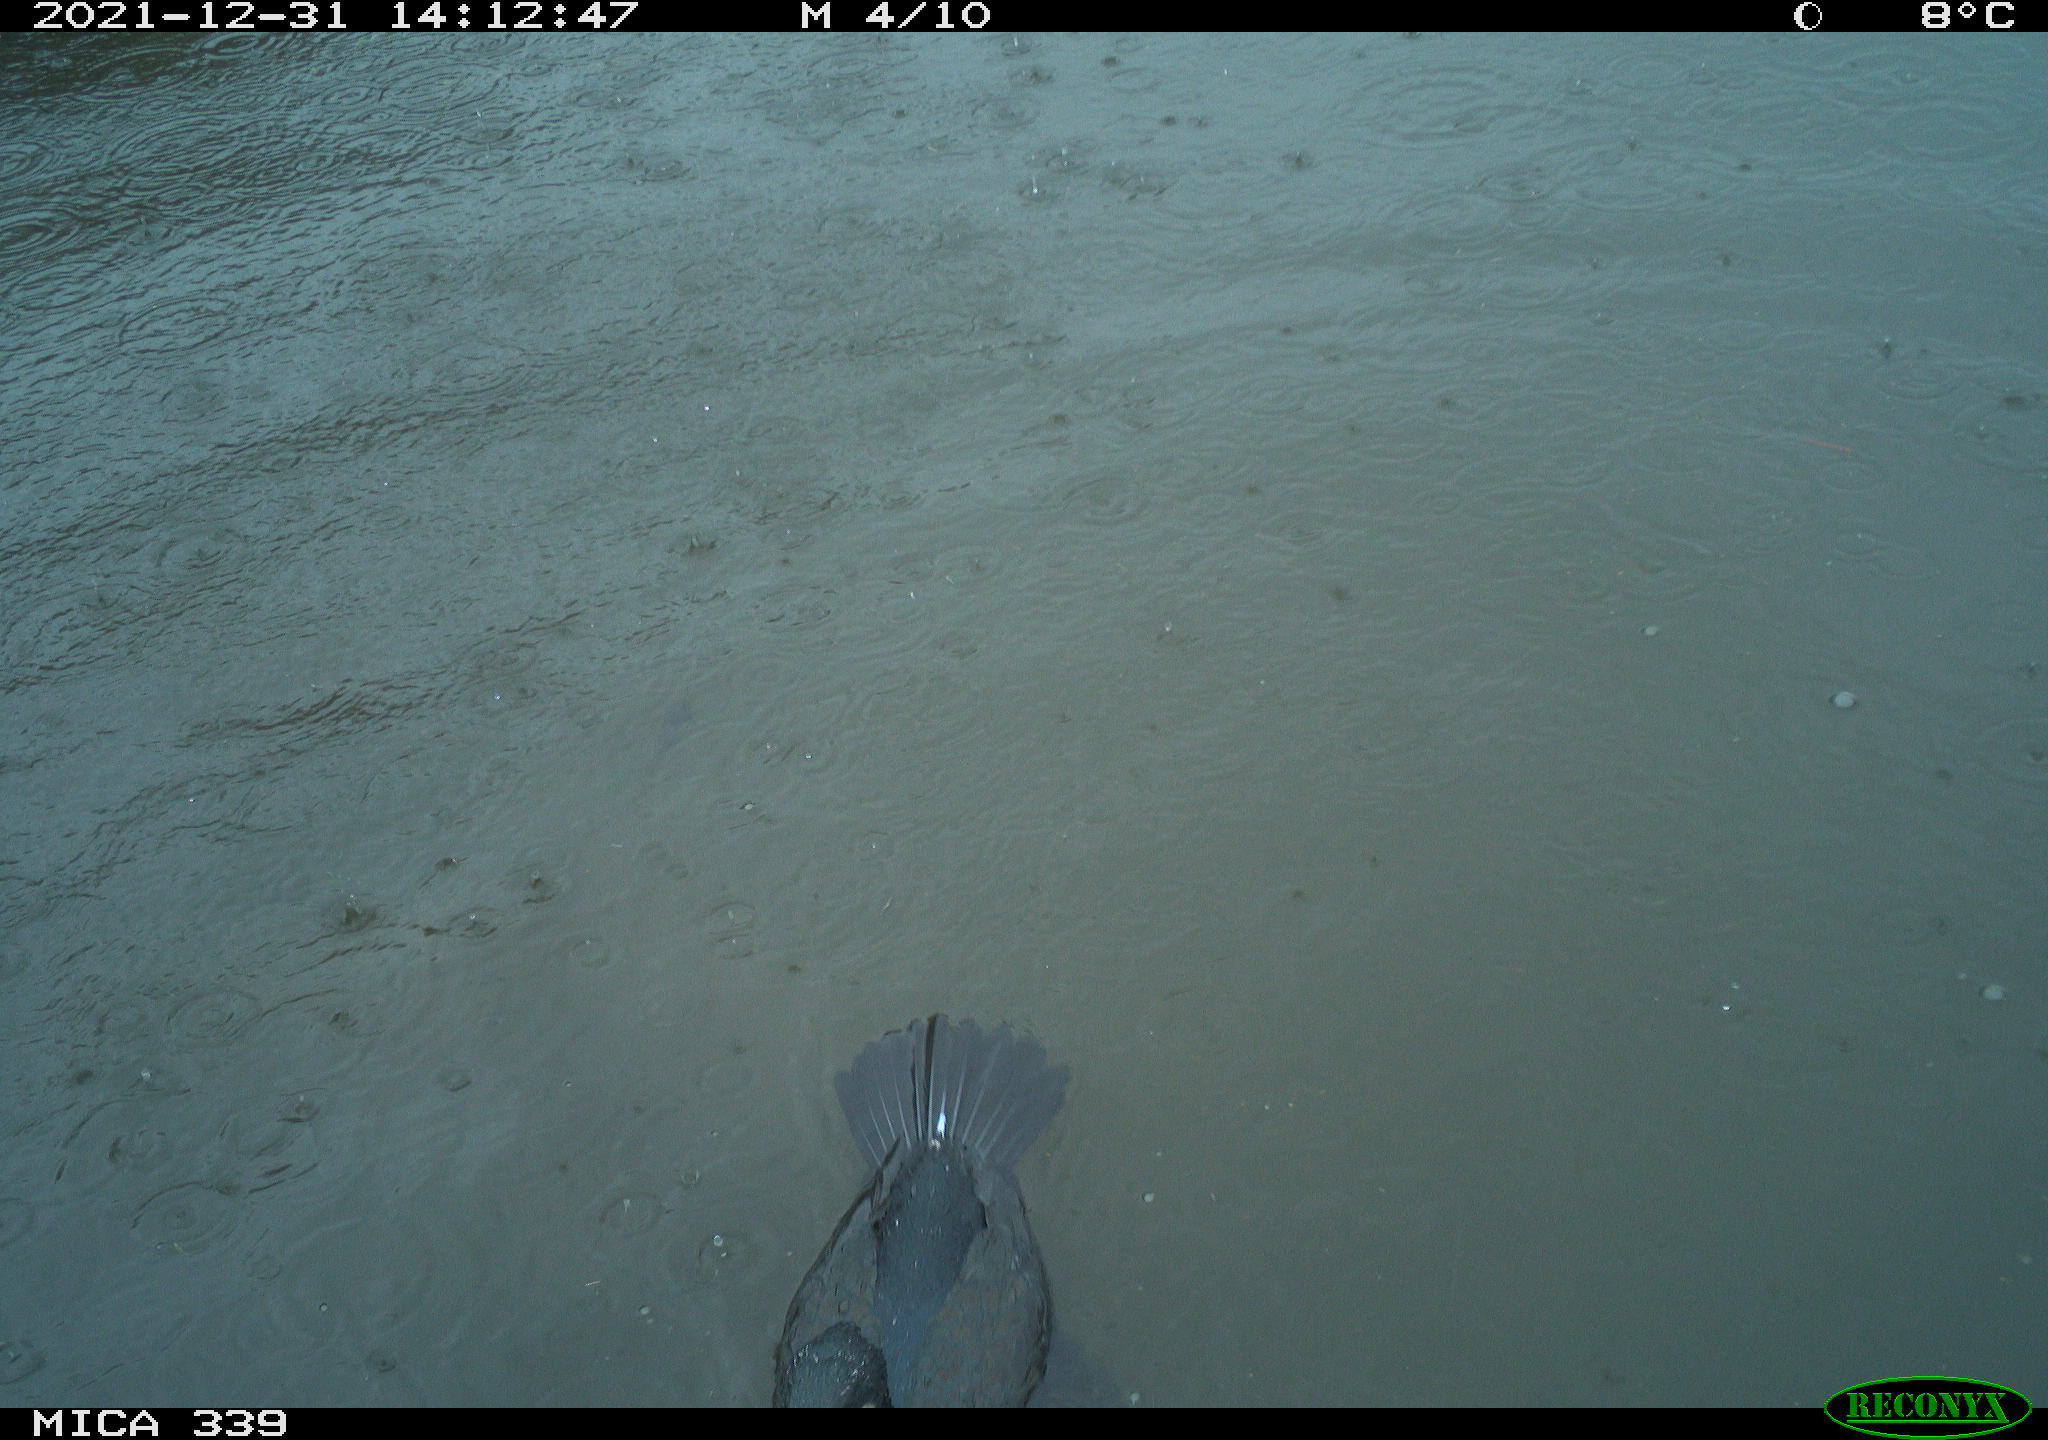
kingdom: Animalia
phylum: Chordata
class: Aves
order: Suliformes
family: Phalacrocoracidae
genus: Phalacrocorax
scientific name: Phalacrocorax carbo
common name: Great cormorant
